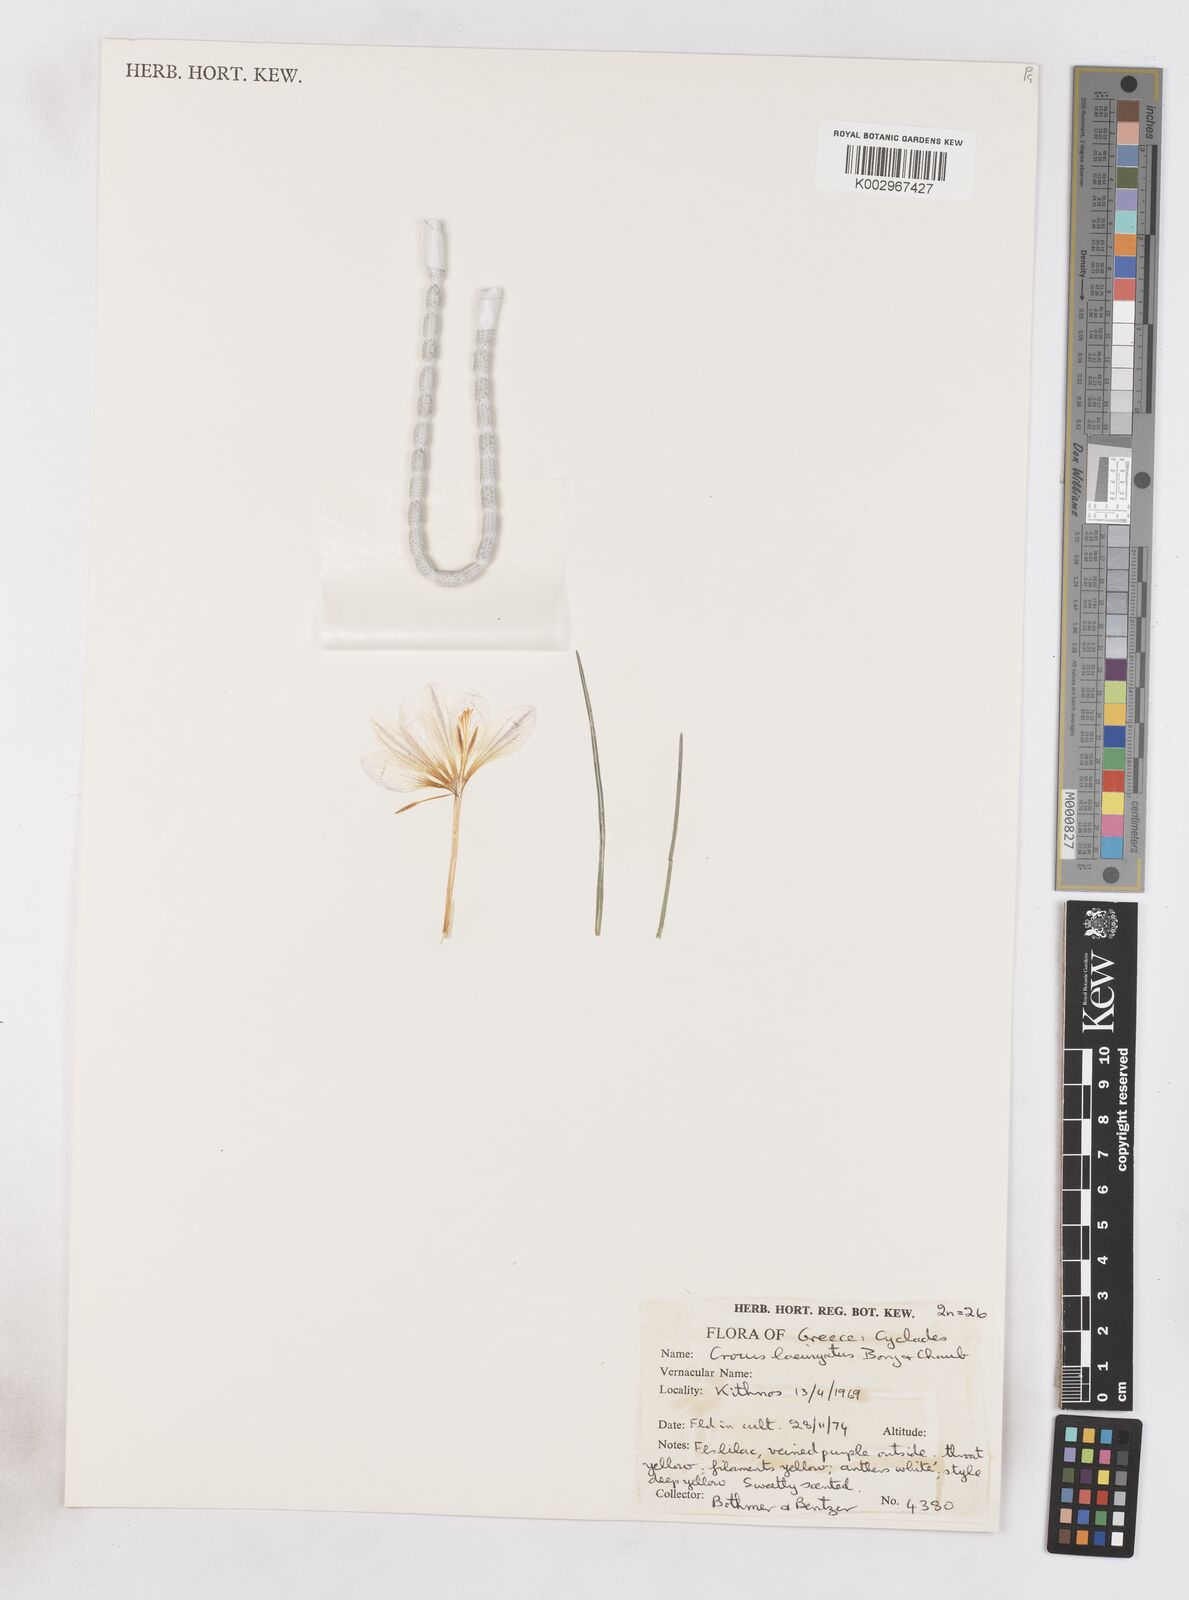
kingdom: Plantae
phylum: Tracheophyta
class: Liliopsida
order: Asparagales
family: Iridaceae
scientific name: Iridaceae
